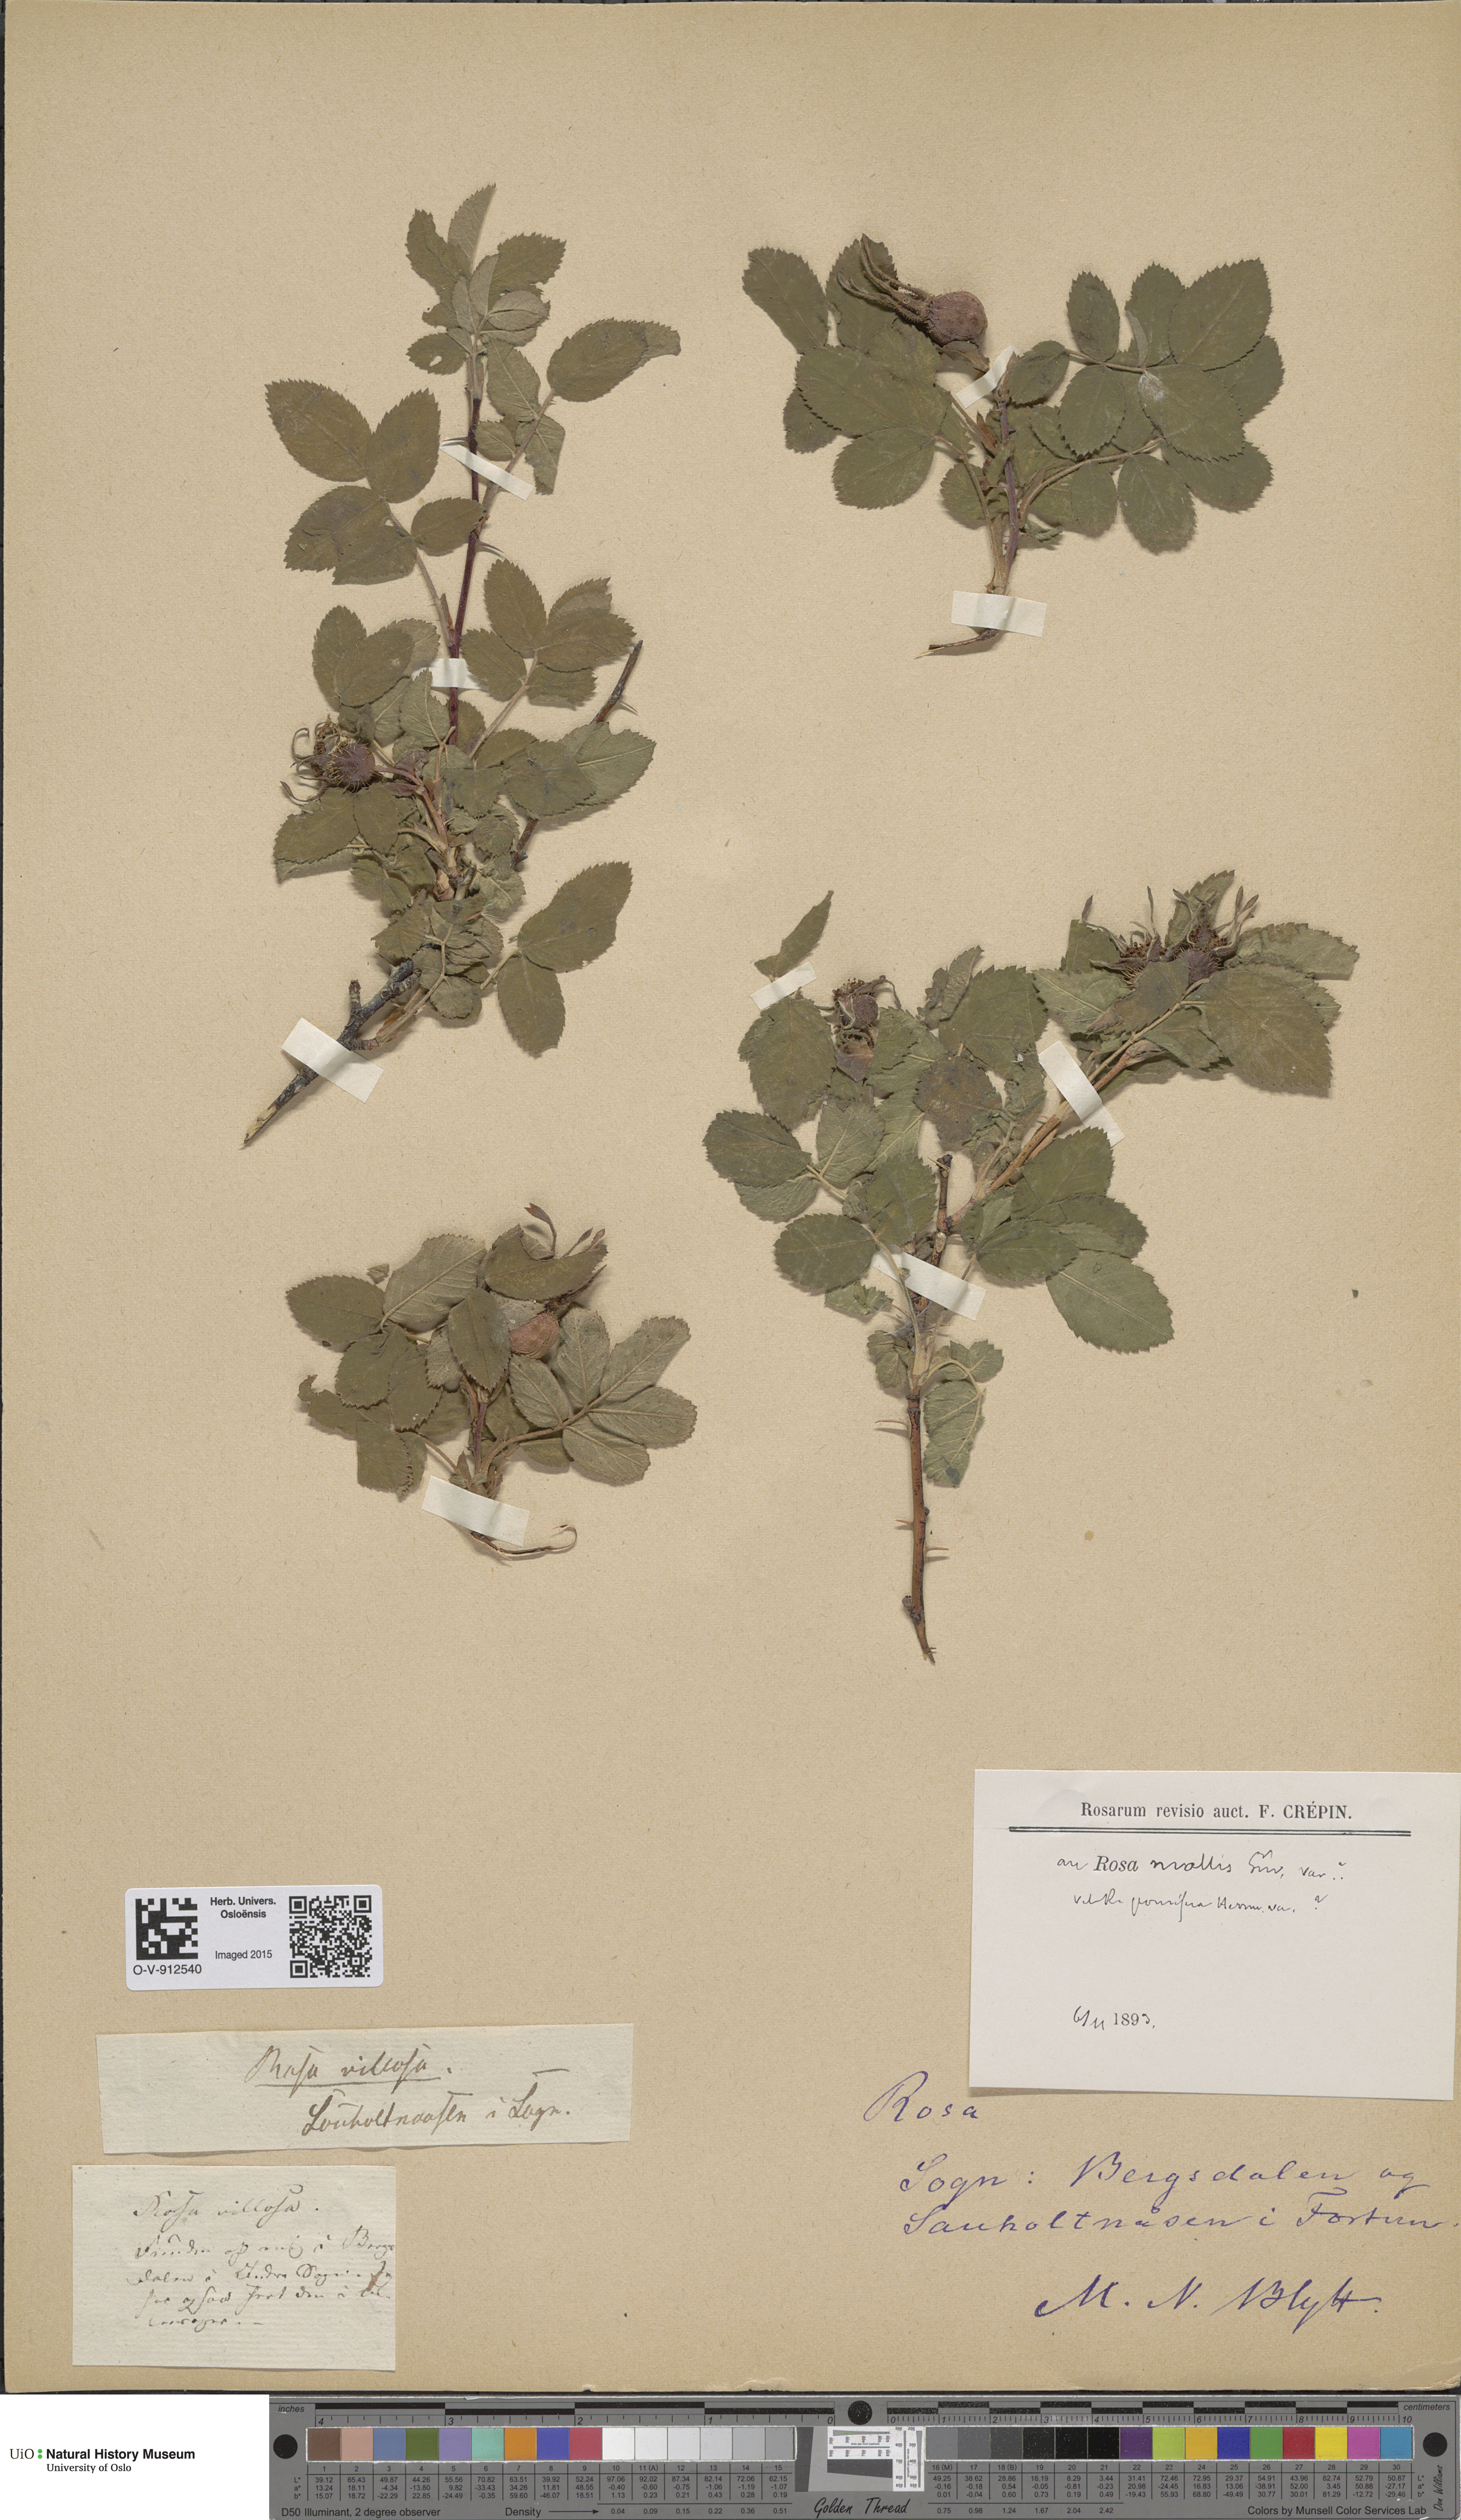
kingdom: Plantae
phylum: Tracheophyta
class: Magnoliopsida
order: Rosales
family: Rosaceae
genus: Rosa
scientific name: Rosa villosa
